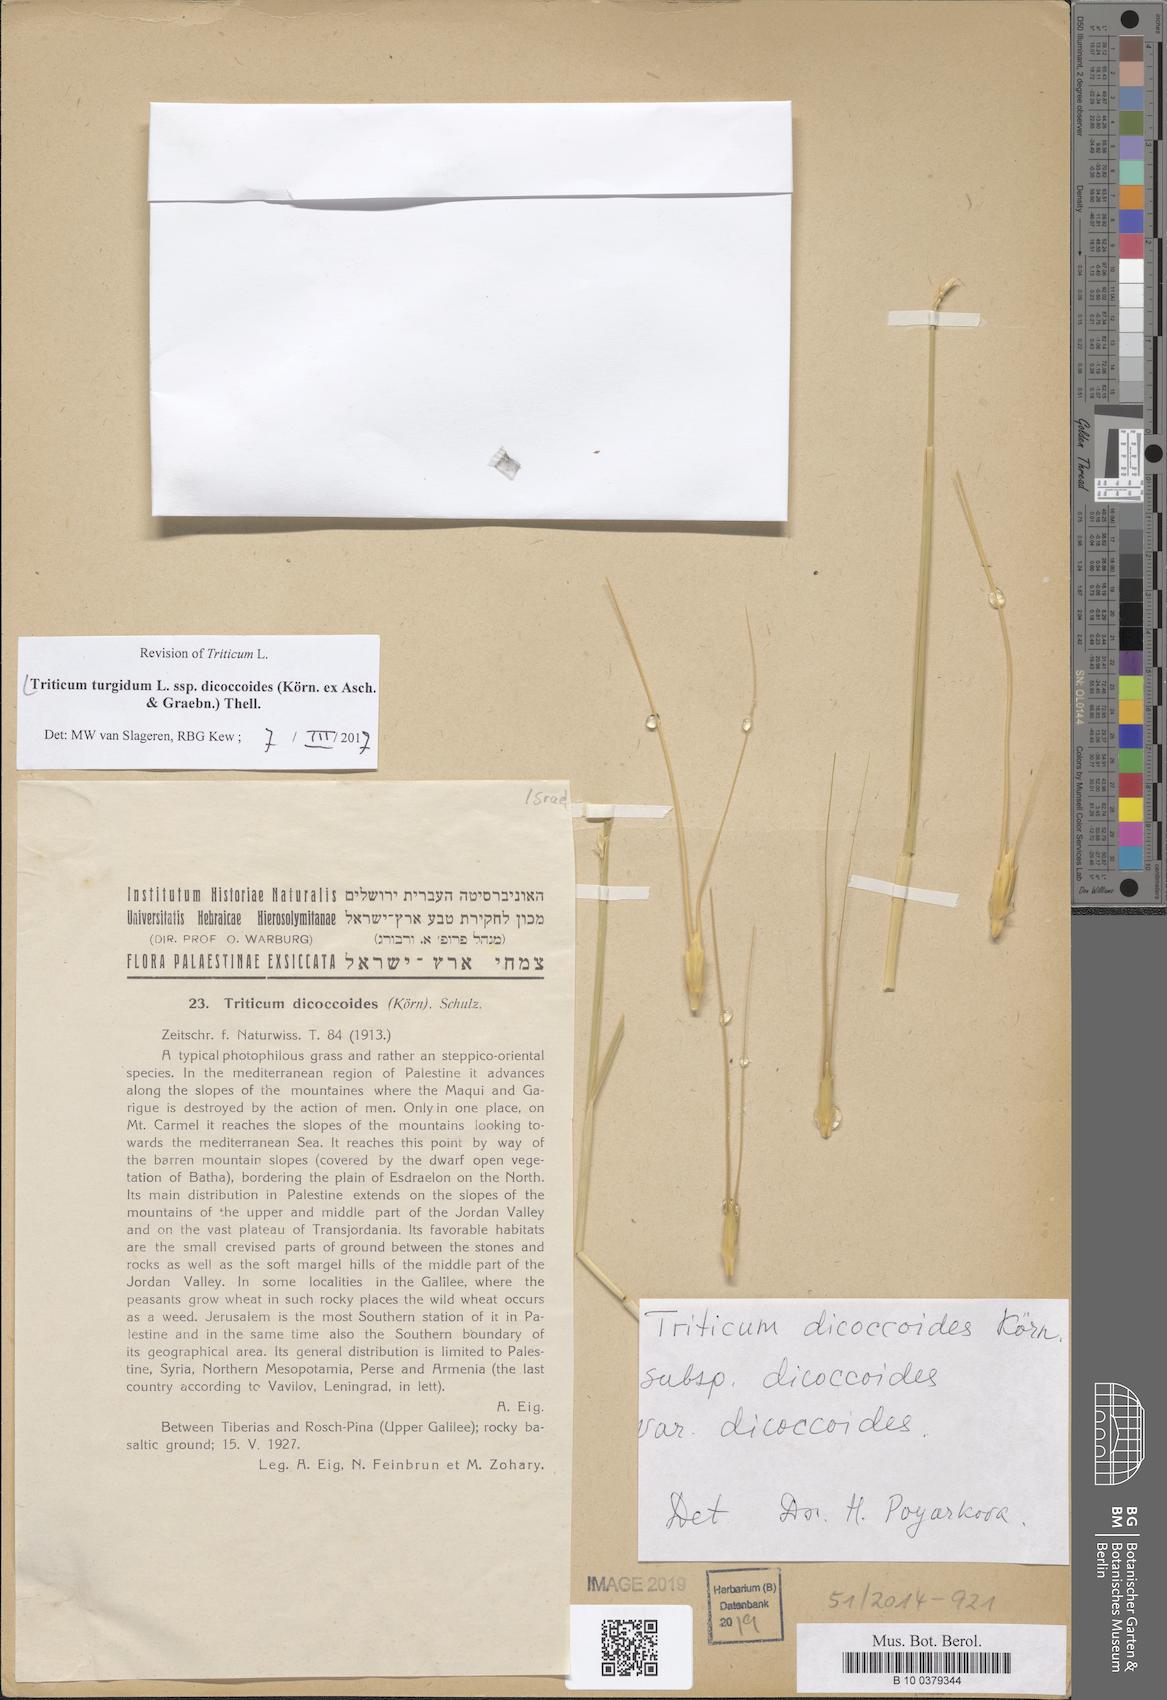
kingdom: Plantae
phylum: Tracheophyta
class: Liliopsida
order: Poales
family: Poaceae
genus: Triticum
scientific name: Triticum turgidum
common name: Rivet wheat
